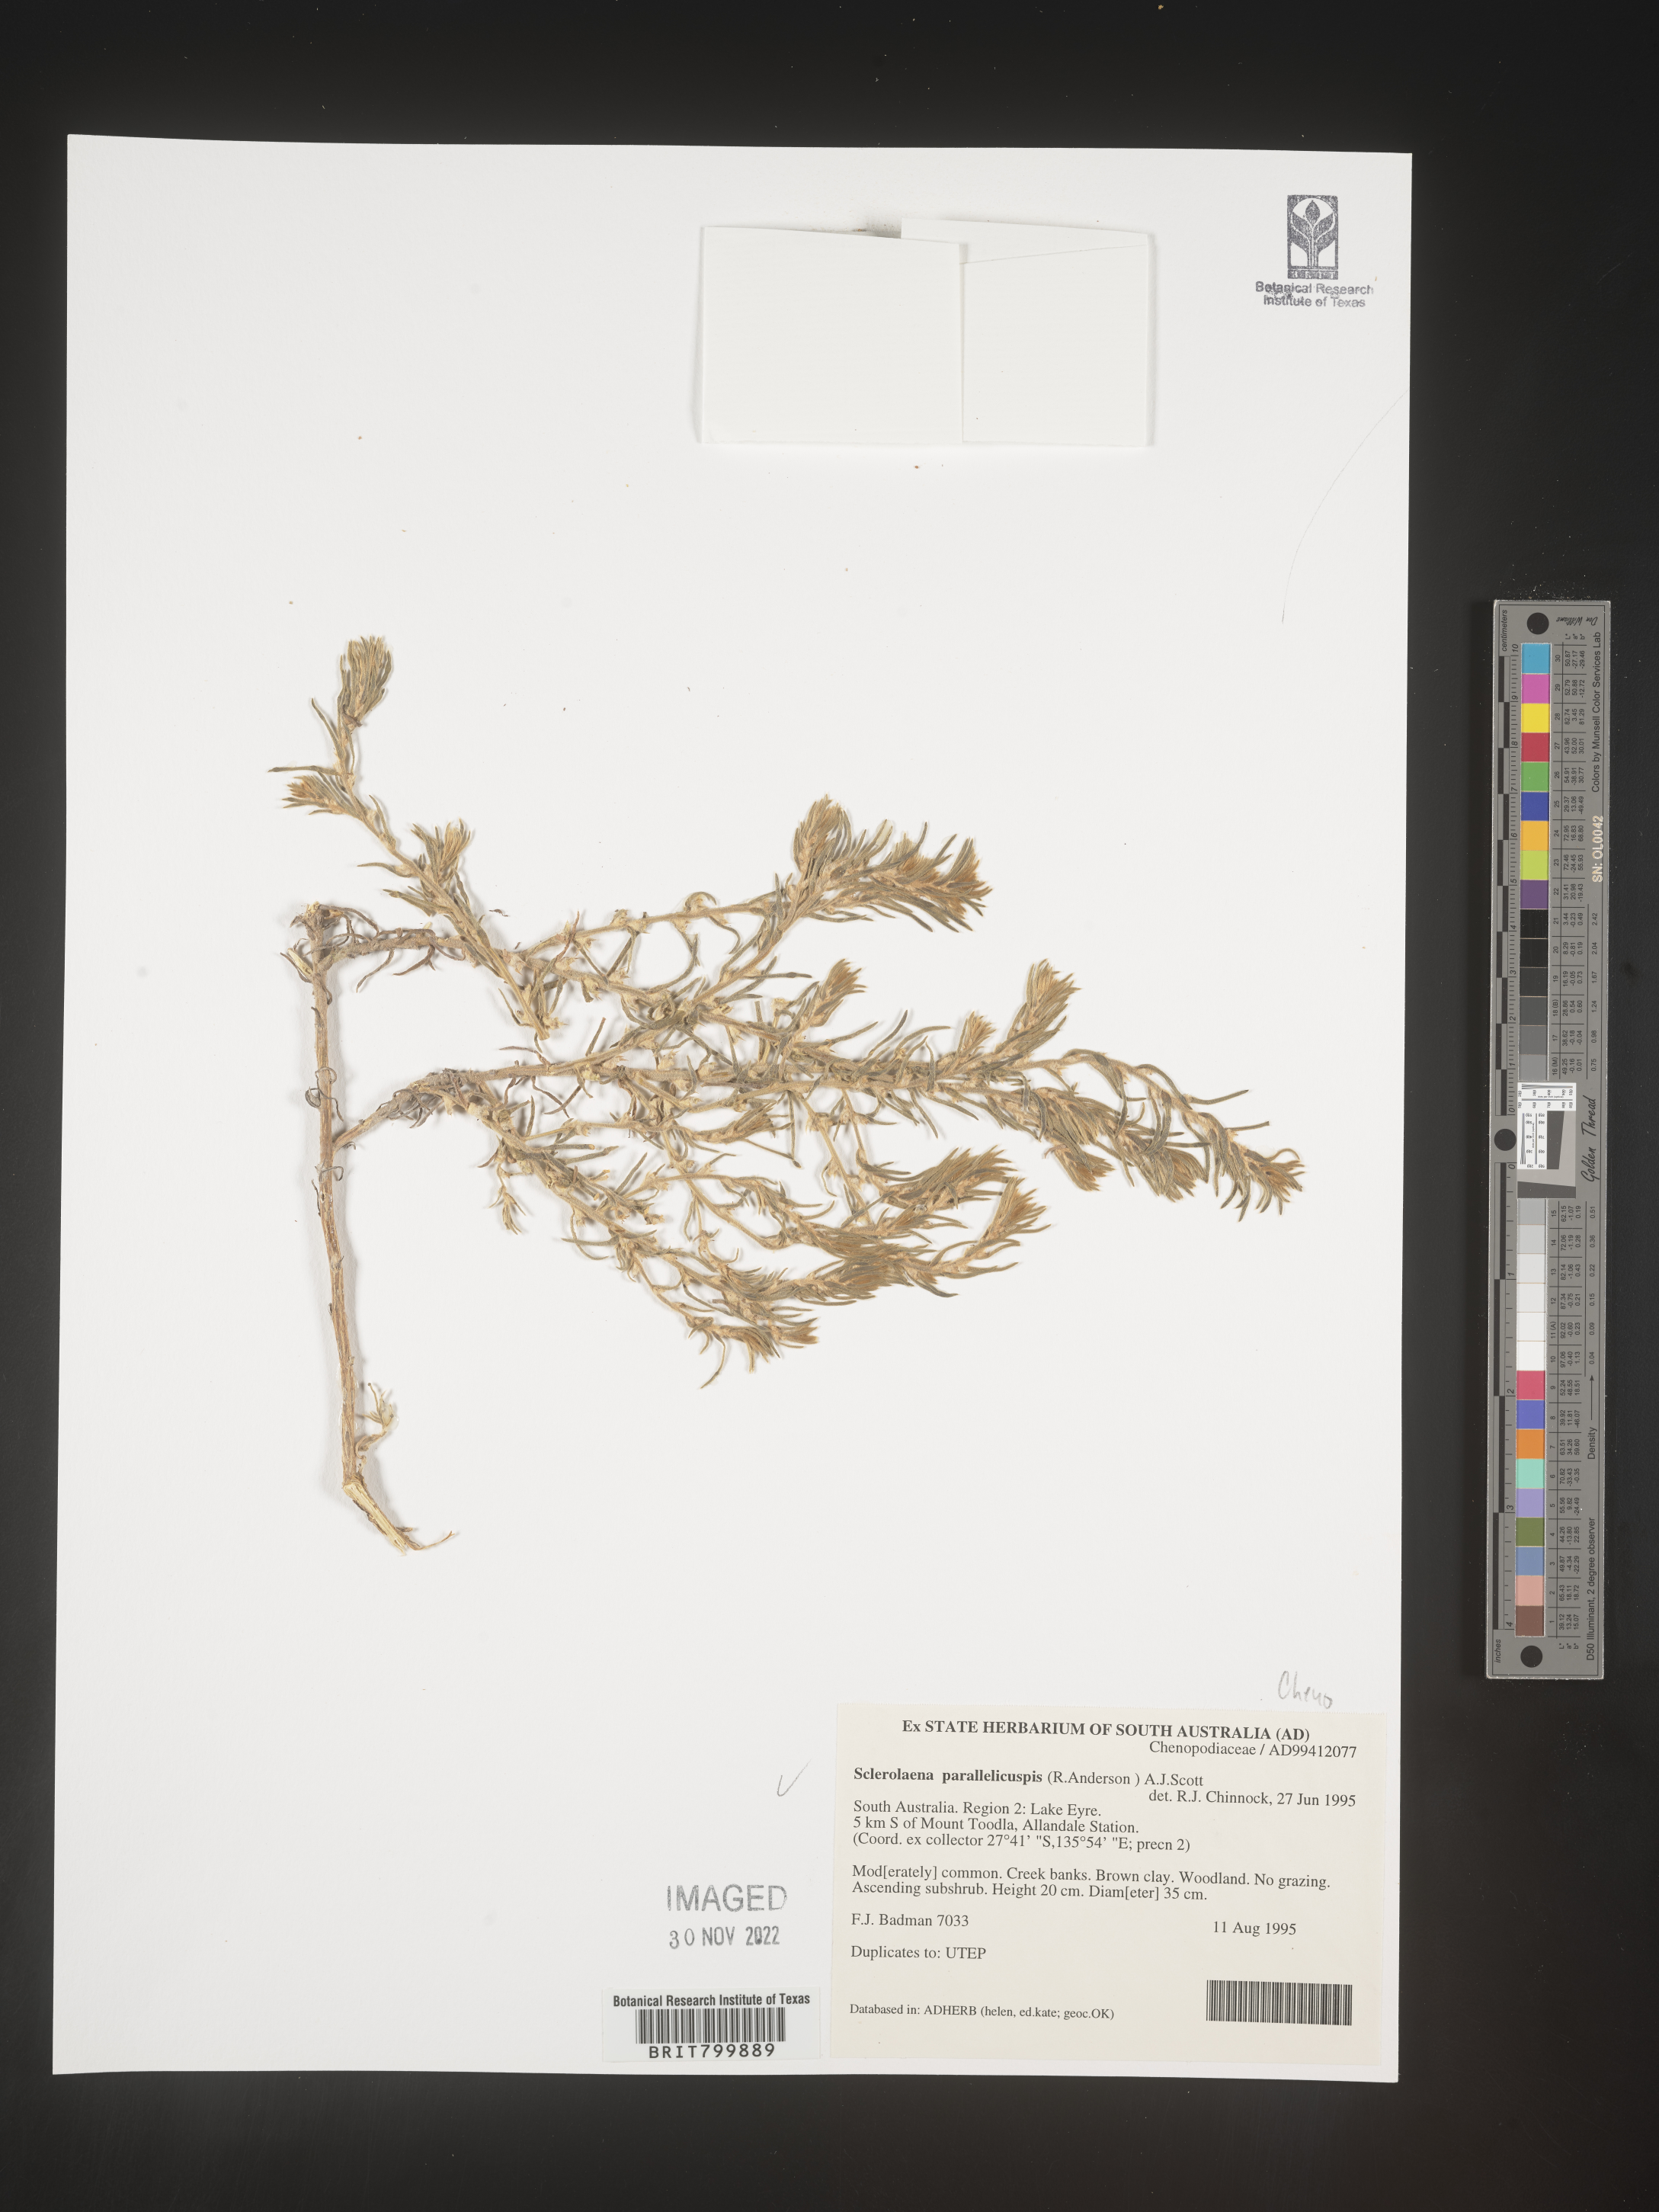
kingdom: Plantae
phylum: Tracheophyta
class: Magnoliopsida
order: Caryophyllales
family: Amaranthaceae
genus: Sclerolaena
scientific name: Sclerolaena
